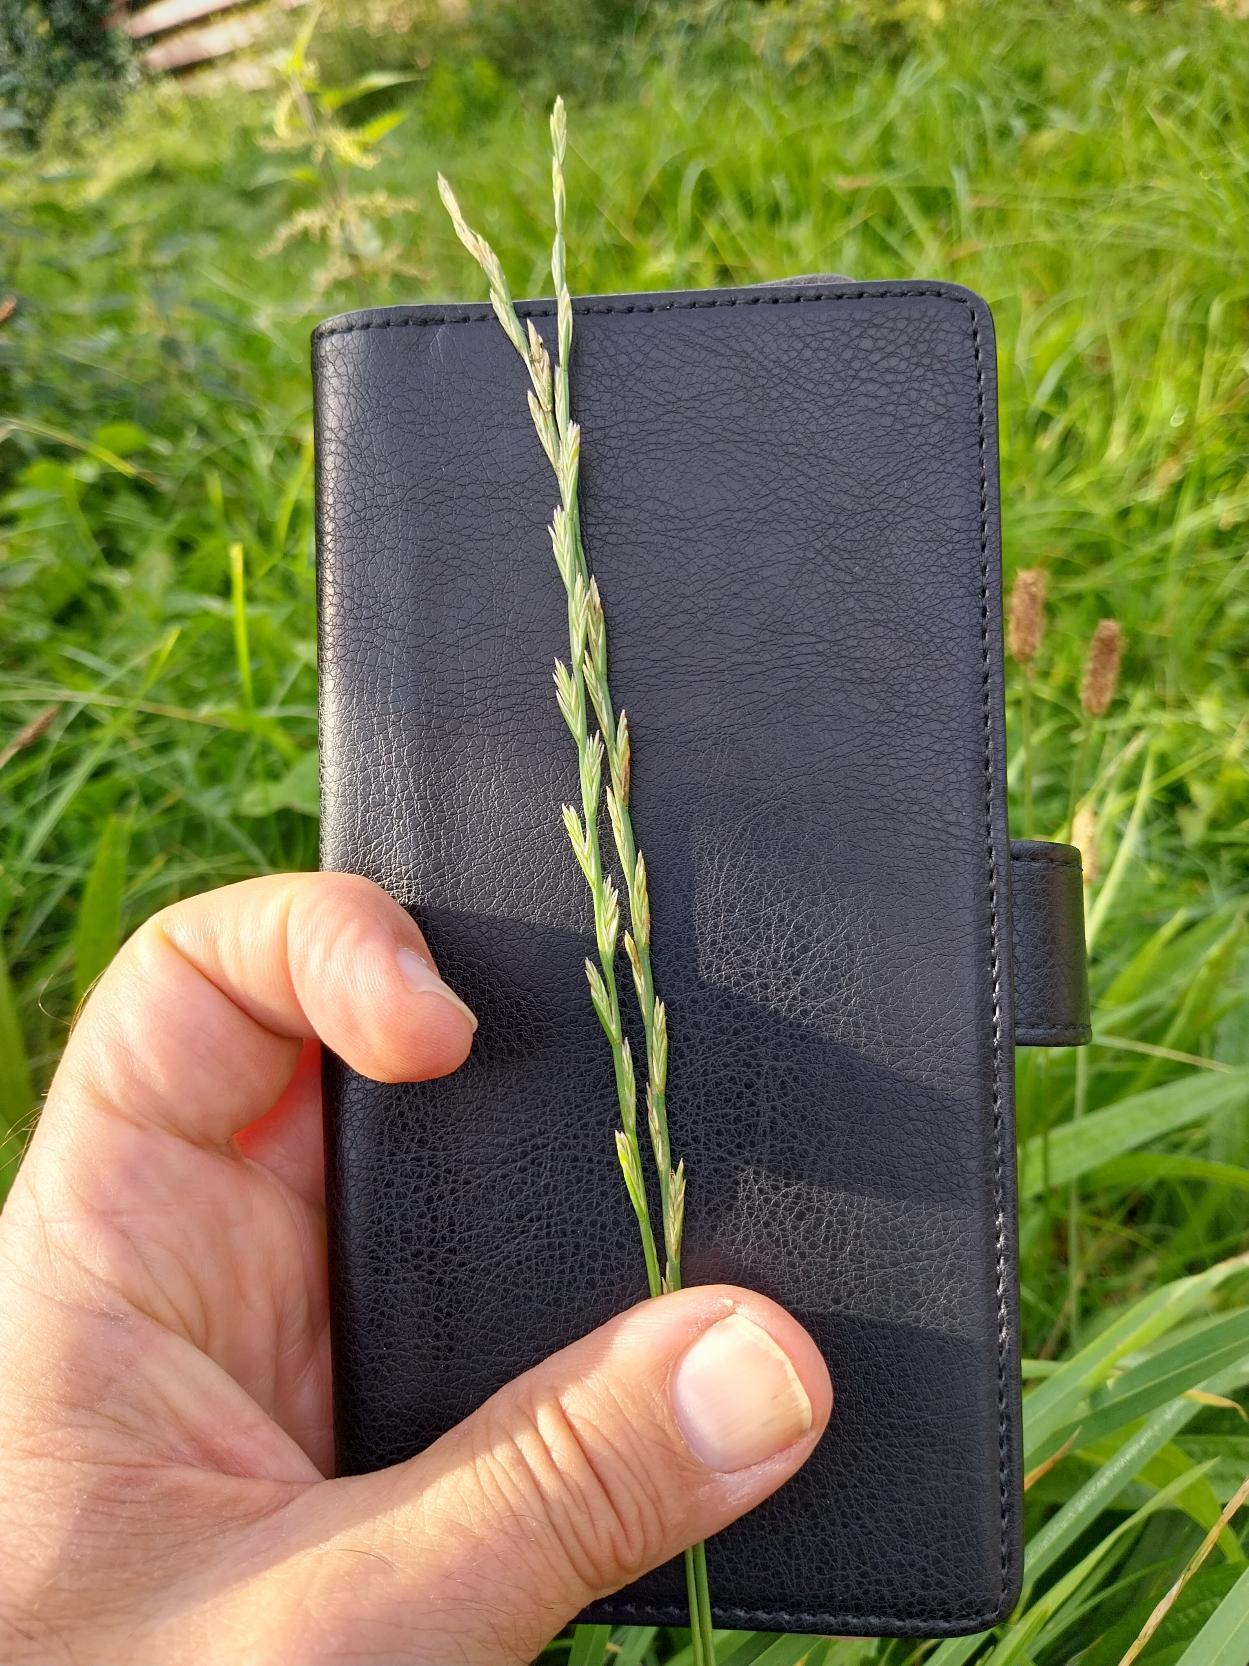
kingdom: Plantae
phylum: Tracheophyta
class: Liliopsida
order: Poales
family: Poaceae
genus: Lolium
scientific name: Lolium perenne
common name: Almindelig rajgræs
